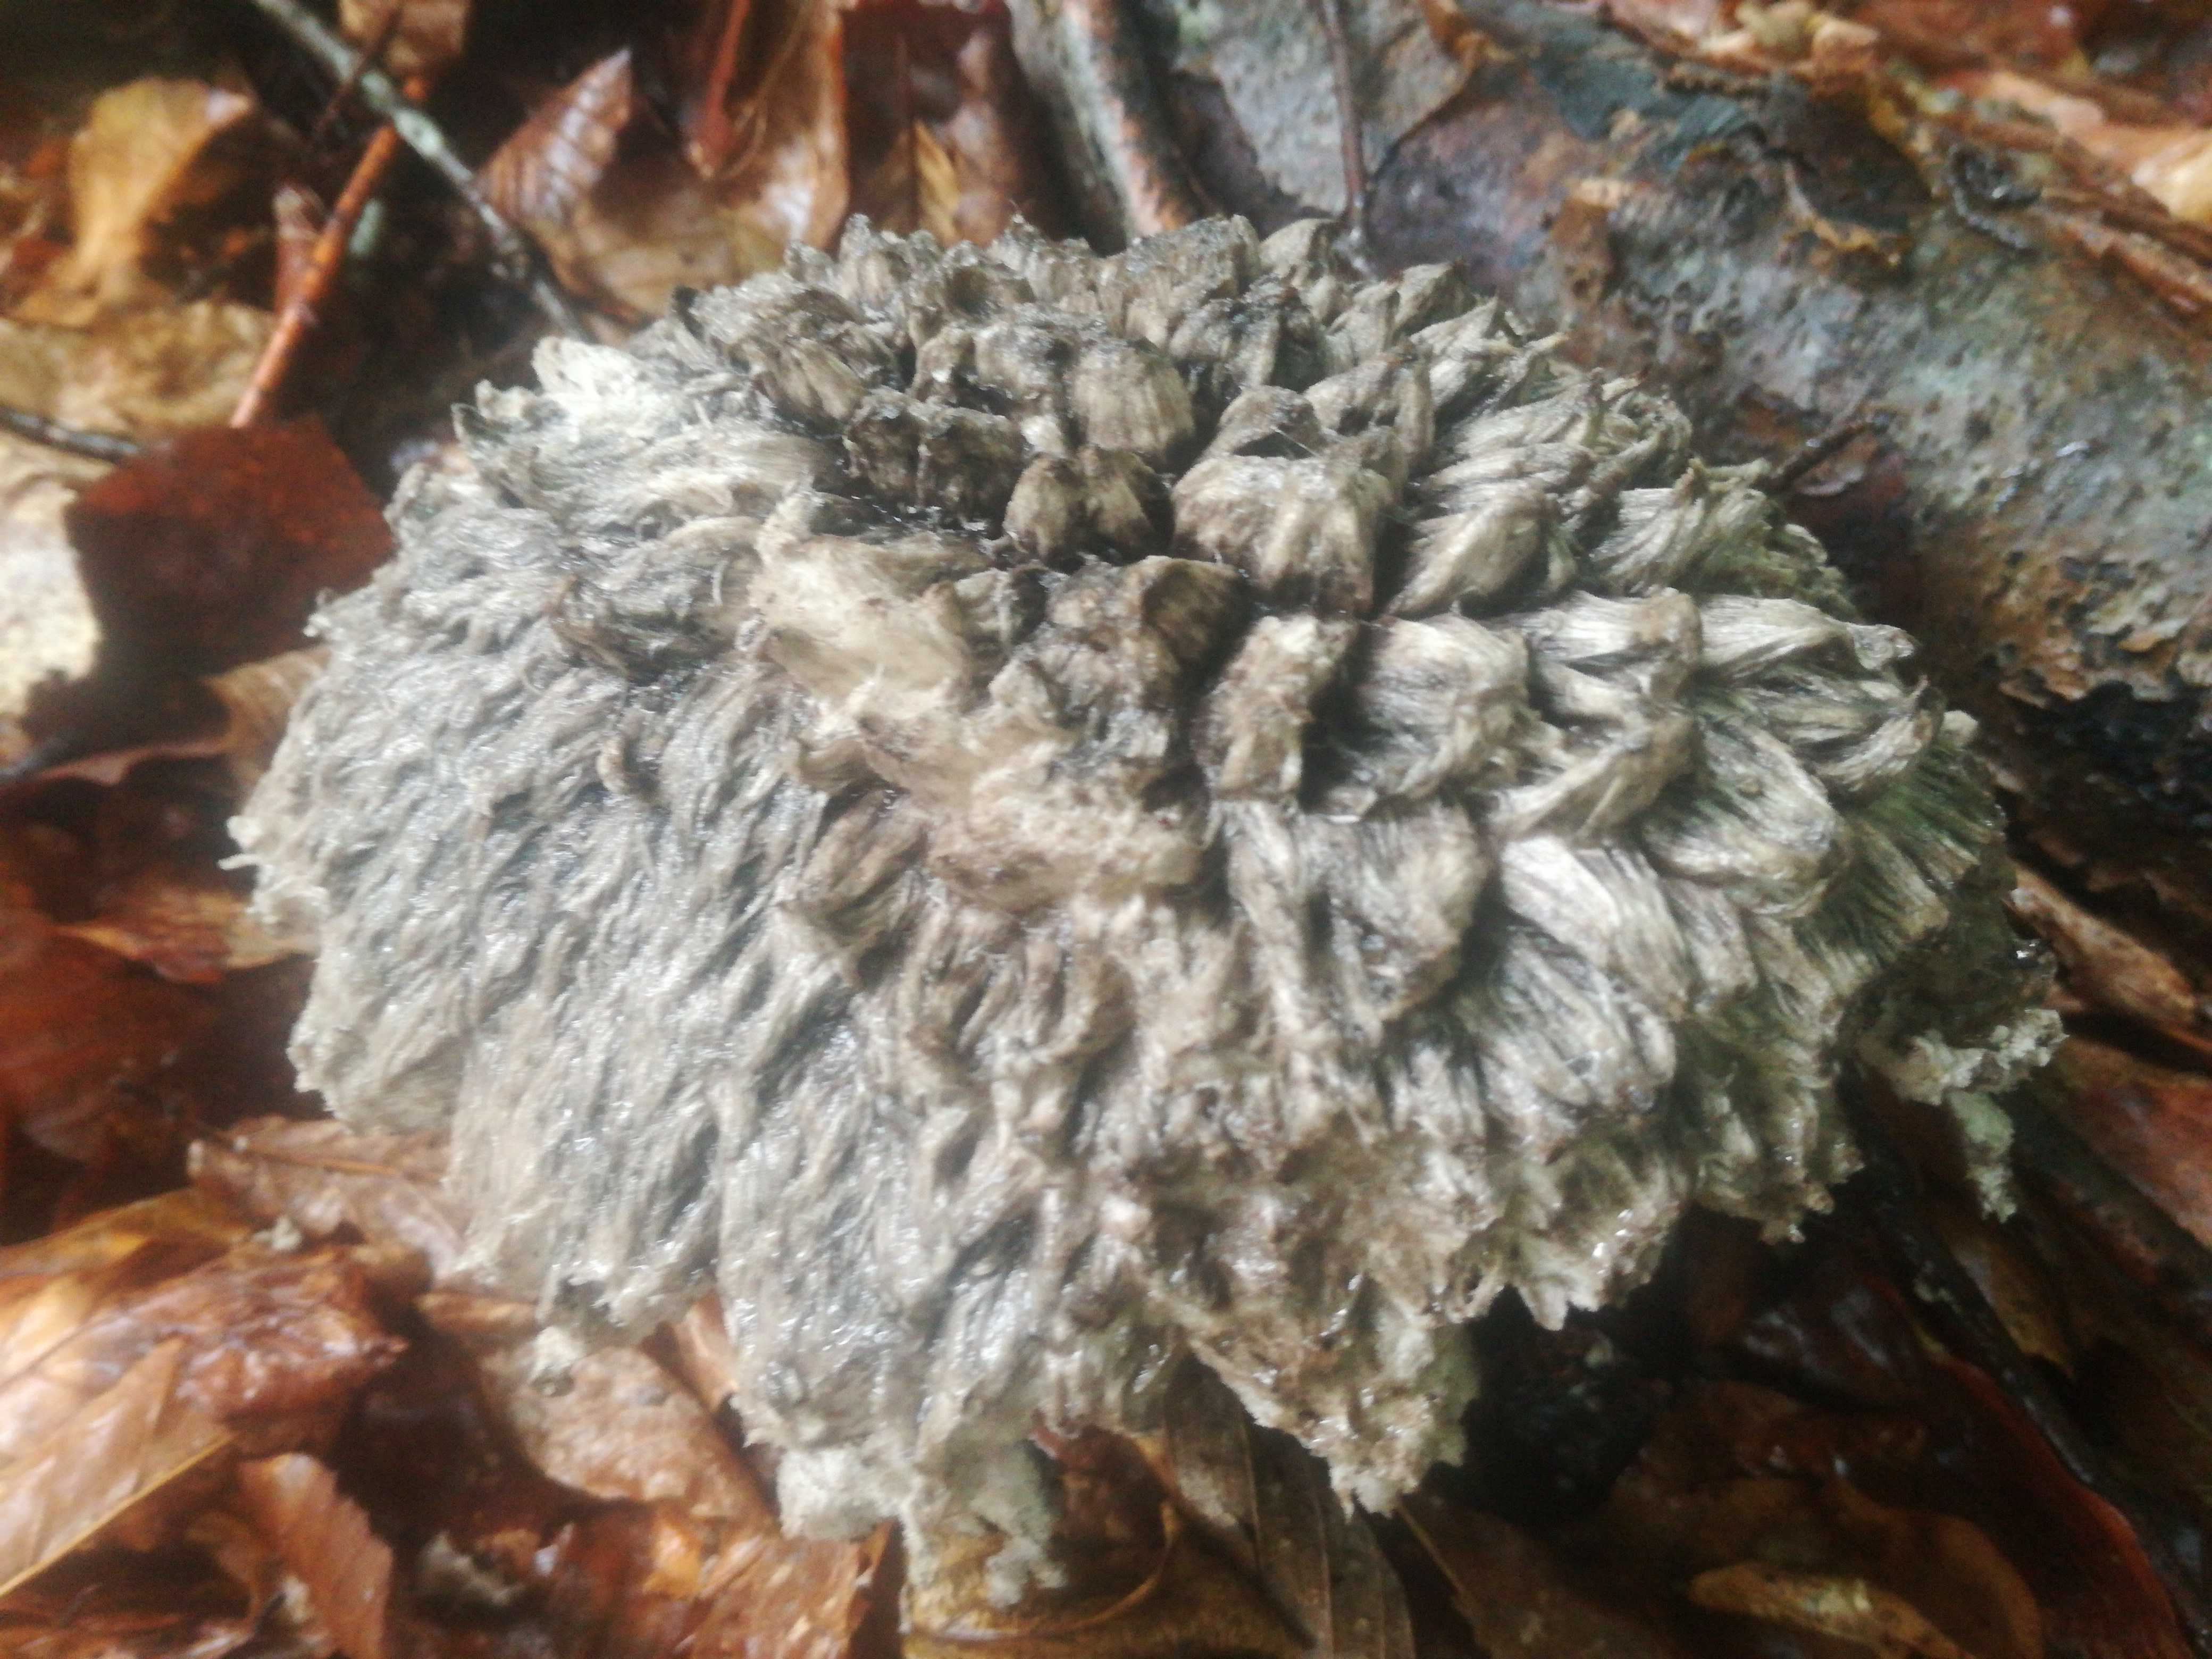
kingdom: Fungi
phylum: Basidiomycota
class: Agaricomycetes
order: Boletales
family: Boletaceae
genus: Strobilomyces
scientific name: Strobilomyces strobilaceus
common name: koglerørhat
